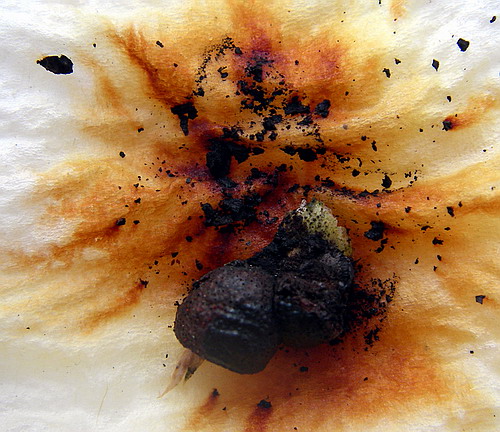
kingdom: Fungi
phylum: Ascomycota
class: Sordariomycetes
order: Xylariales
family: Hypoxylaceae
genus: Hypoxylon
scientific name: Hypoxylon howeanum
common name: halvkugleformet kulbær
